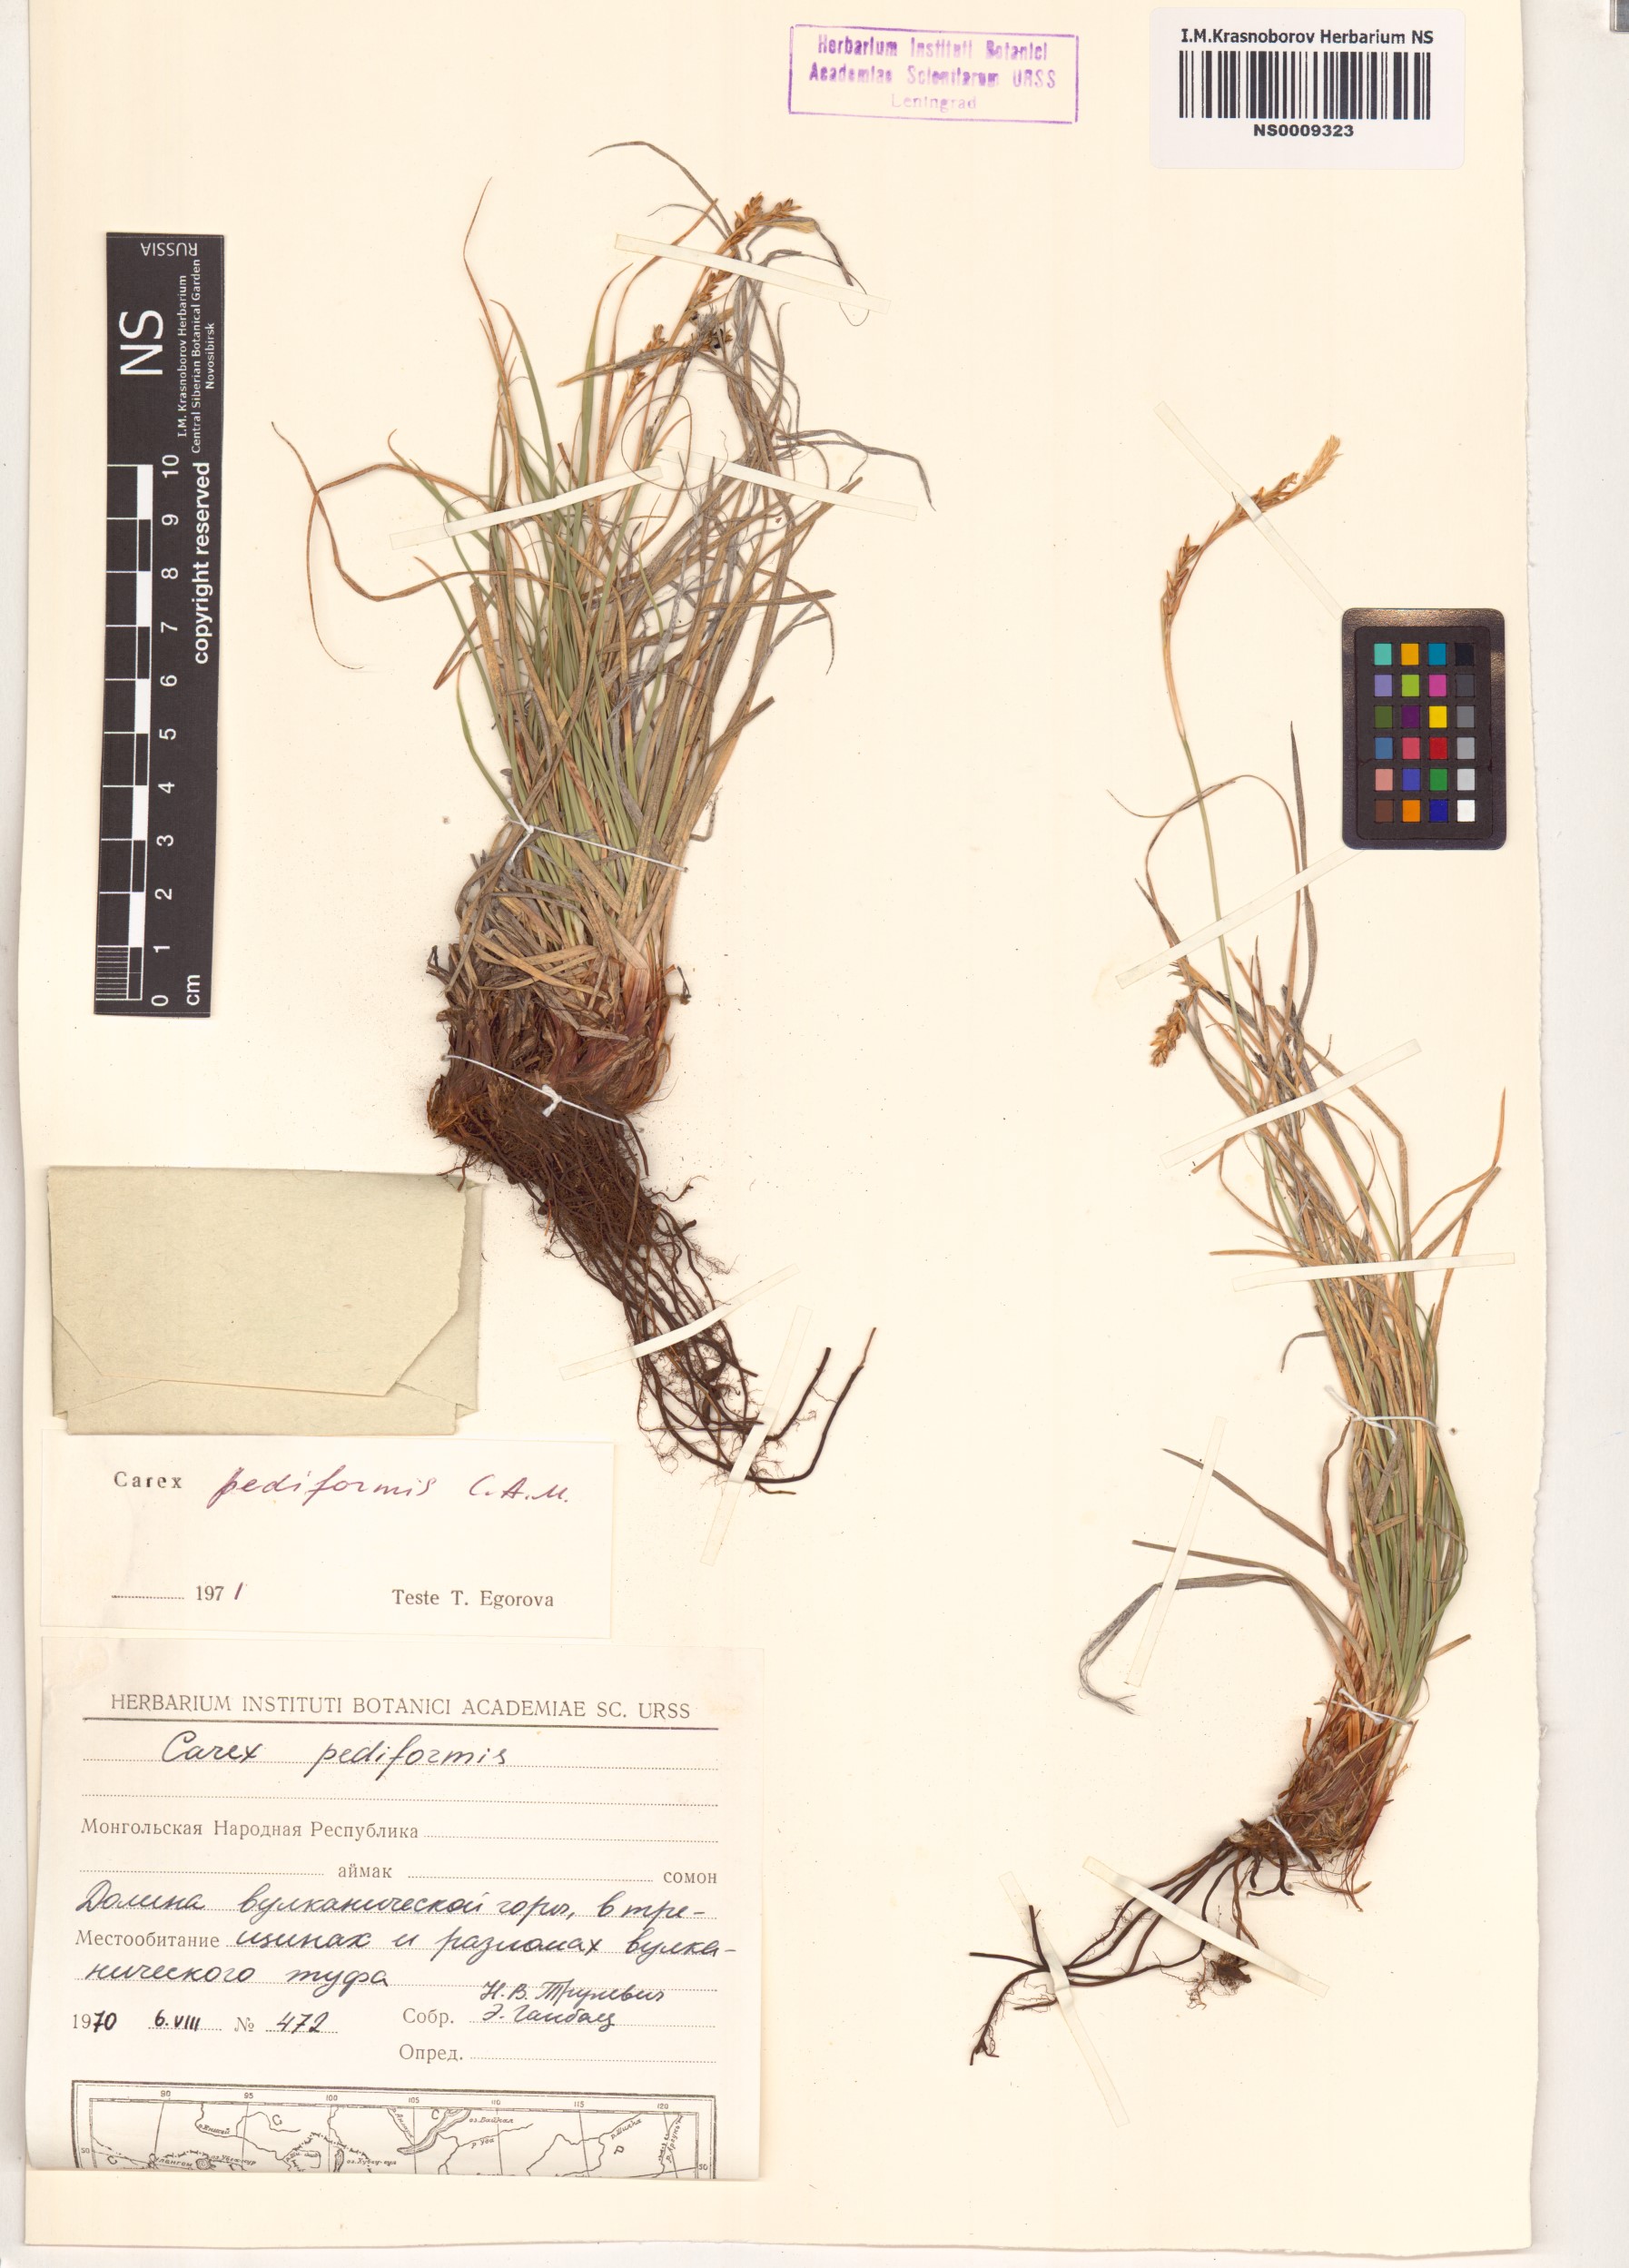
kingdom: Plantae
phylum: Tracheophyta
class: Liliopsida
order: Poales
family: Cyperaceae
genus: Carex
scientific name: Carex pediformis
